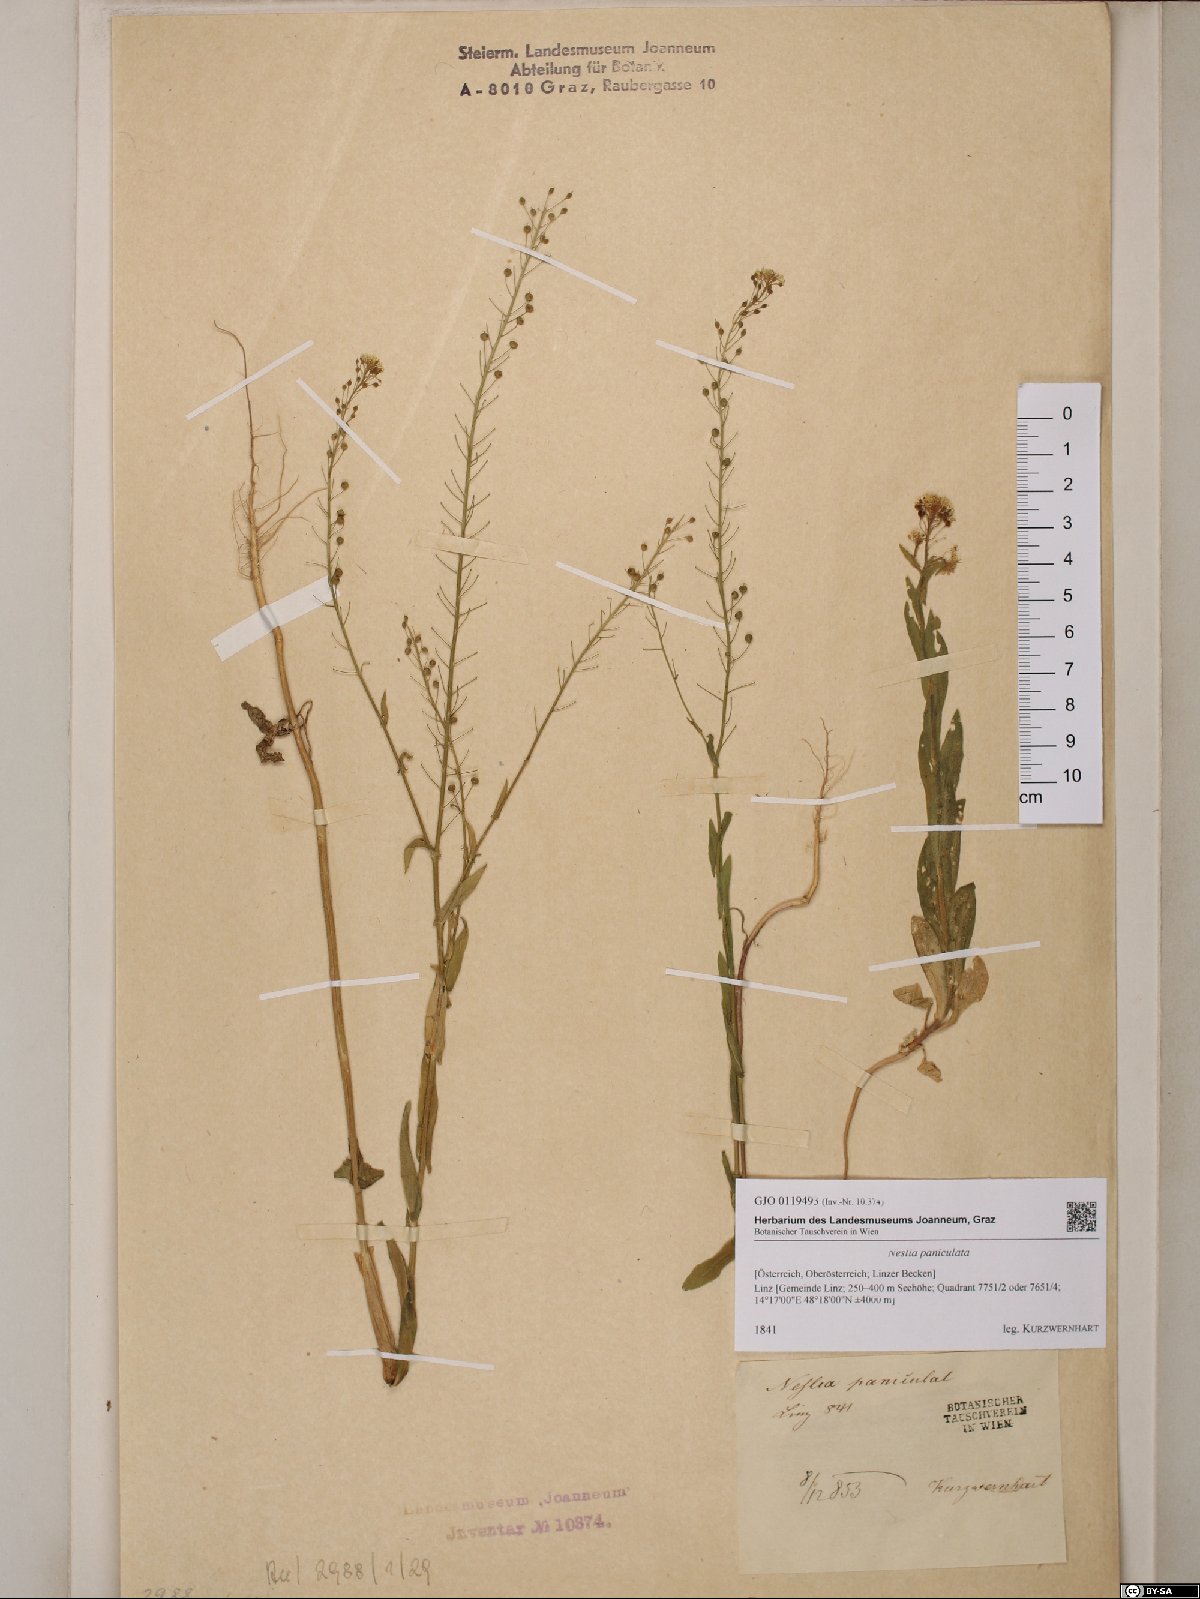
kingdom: Plantae
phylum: Tracheophyta
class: Magnoliopsida
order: Brassicales
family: Brassicaceae
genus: Neslia
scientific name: Neslia paniculata
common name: Ball mustard
